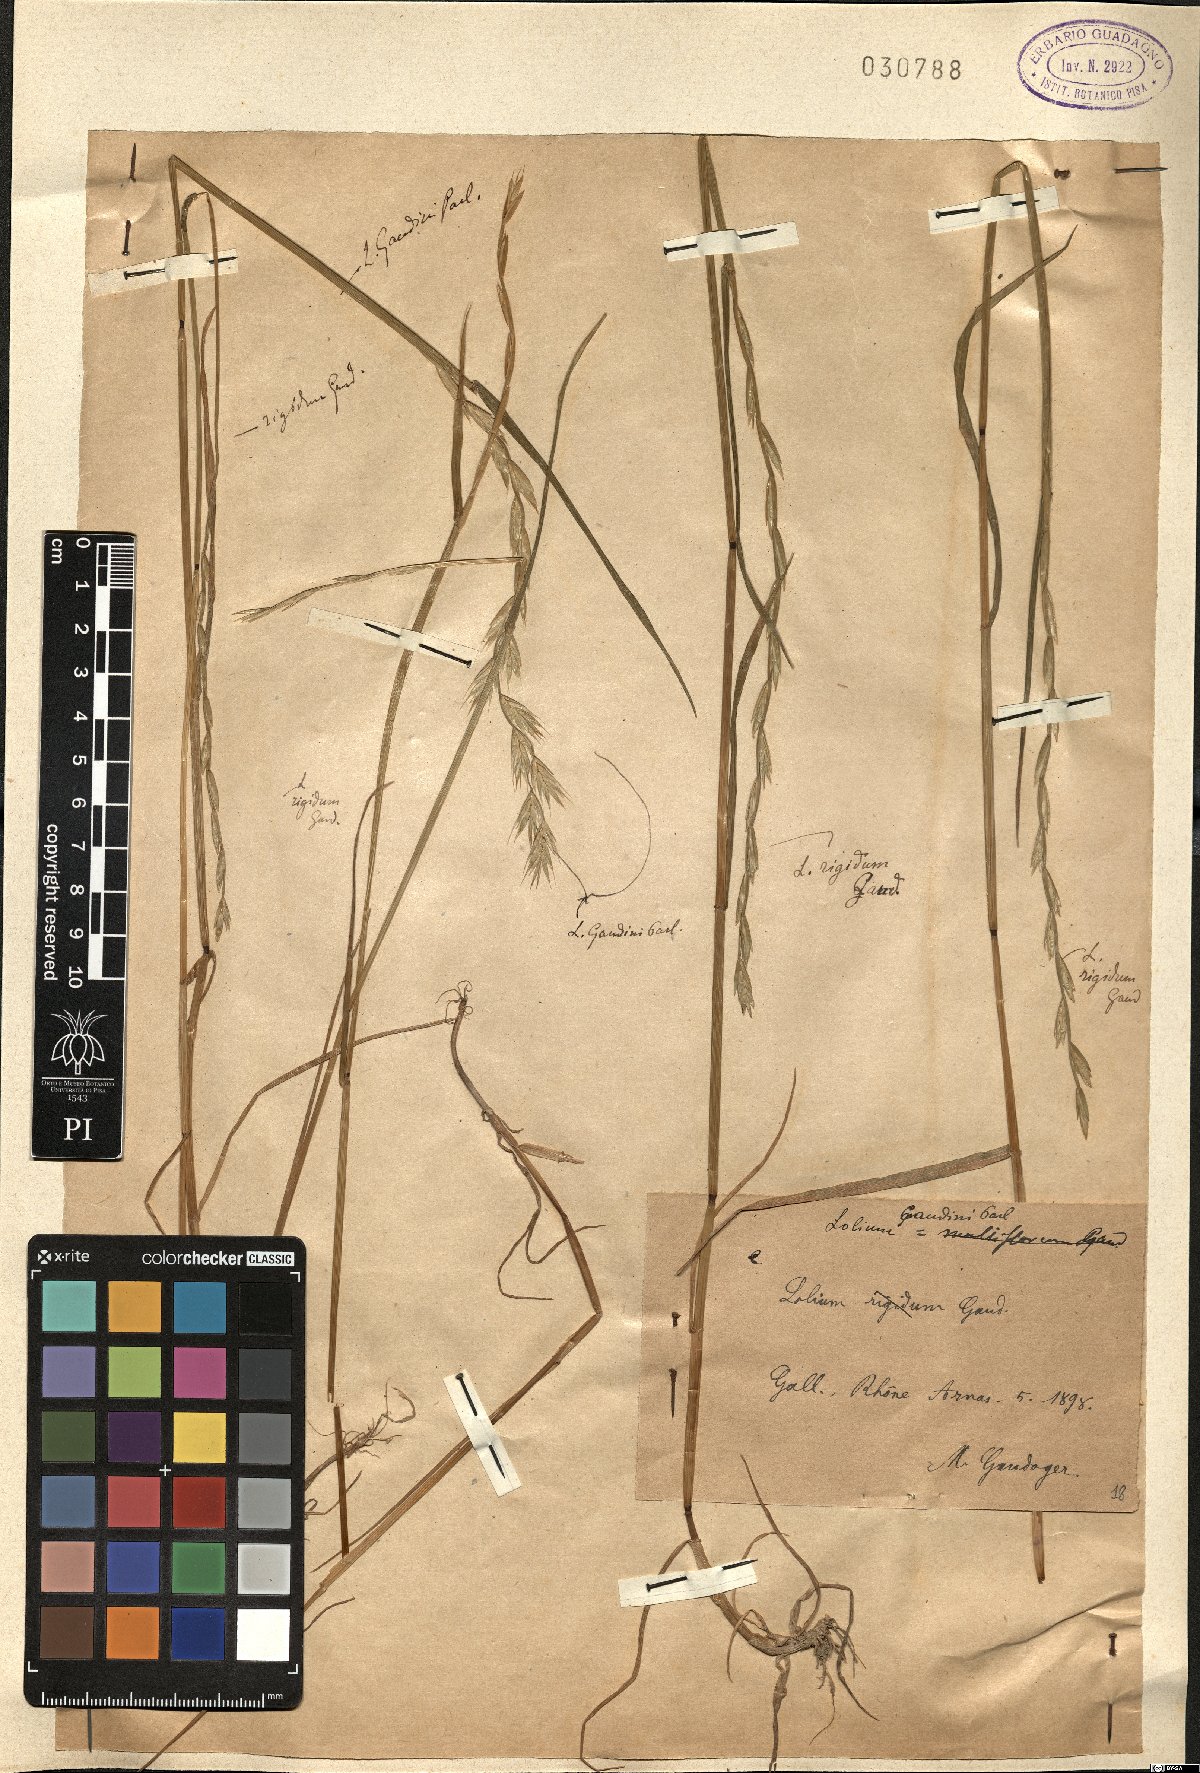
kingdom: Plantae
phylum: Tracheophyta
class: Liliopsida
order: Poales
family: Poaceae
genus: Lolium
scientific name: Lolium multiflorum
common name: Annual ryegrass
